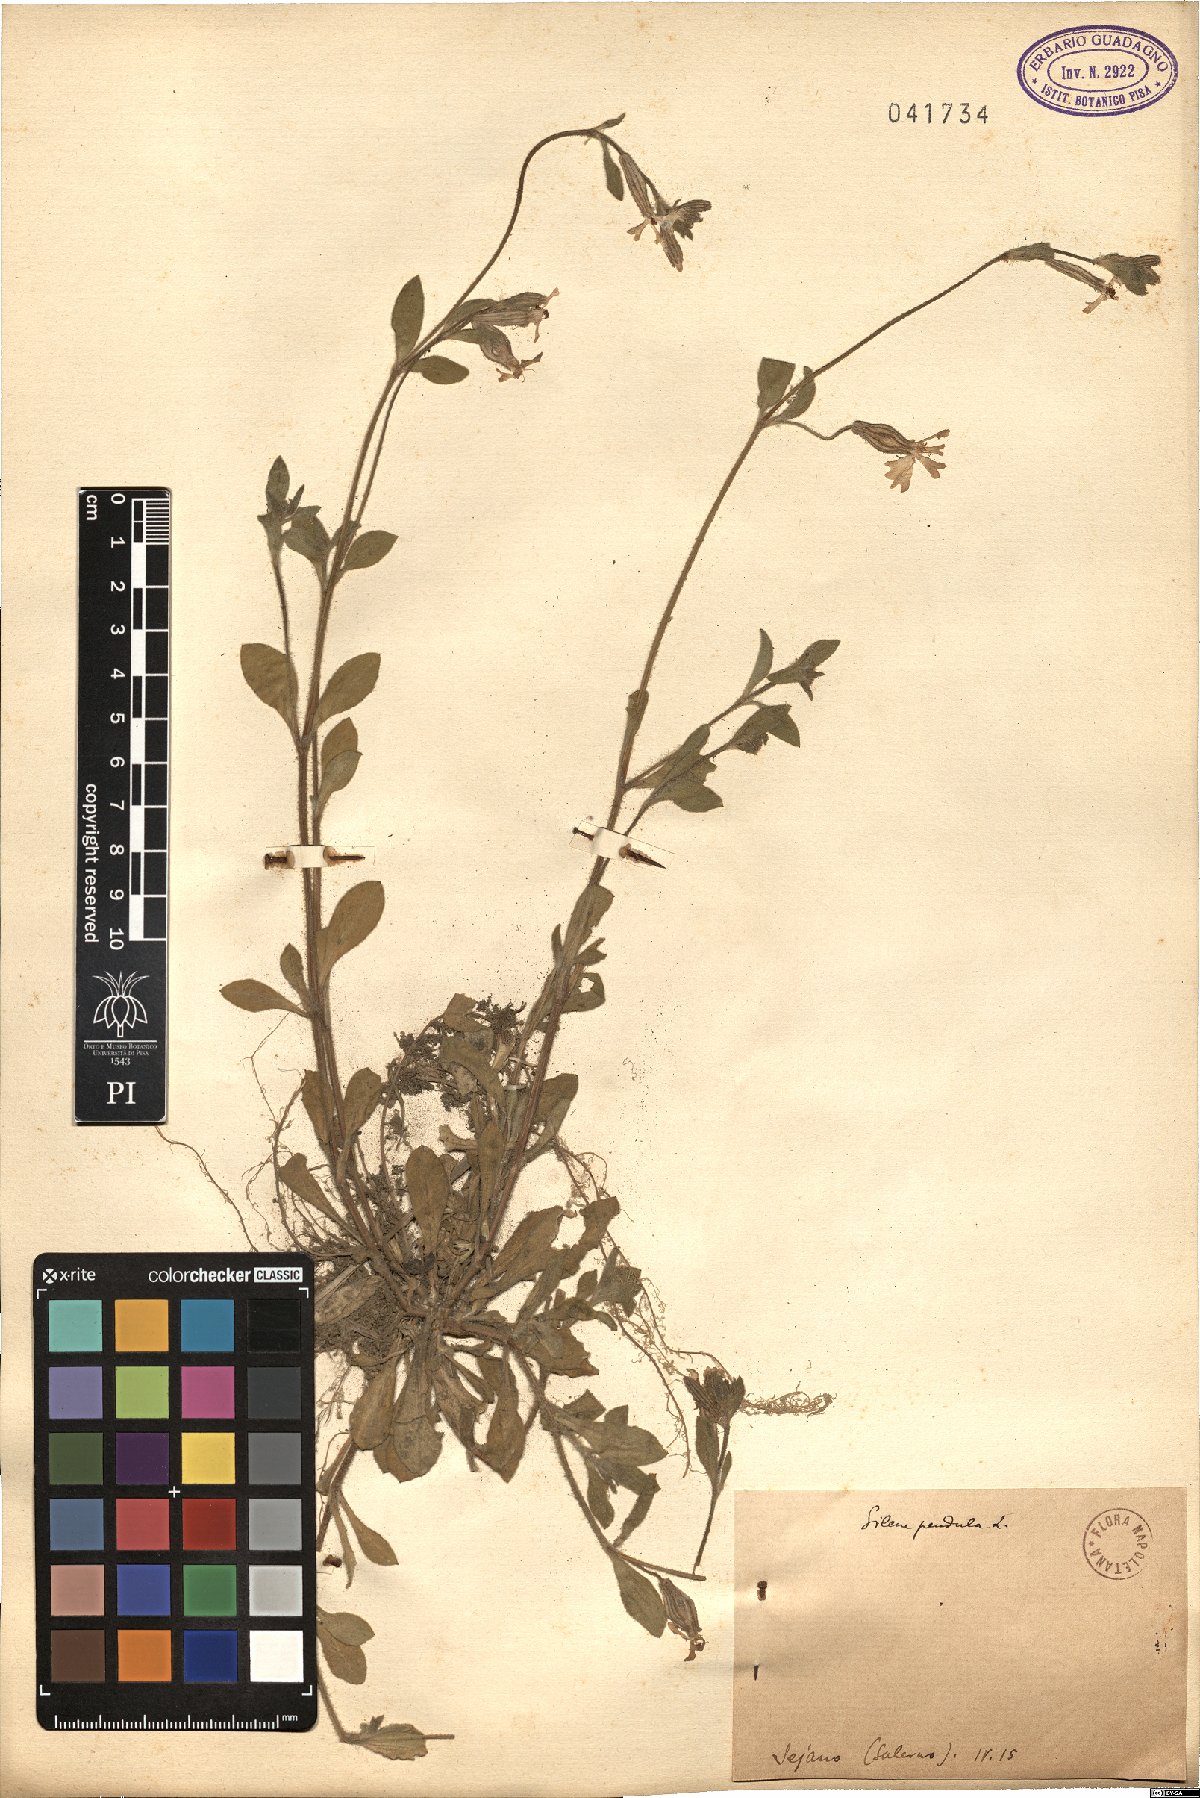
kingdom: Plantae
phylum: Tracheophyta
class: Magnoliopsida
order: Caryophyllales
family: Caryophyllaceae
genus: Silene
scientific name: Silene pendula
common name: Nodding catchfly
